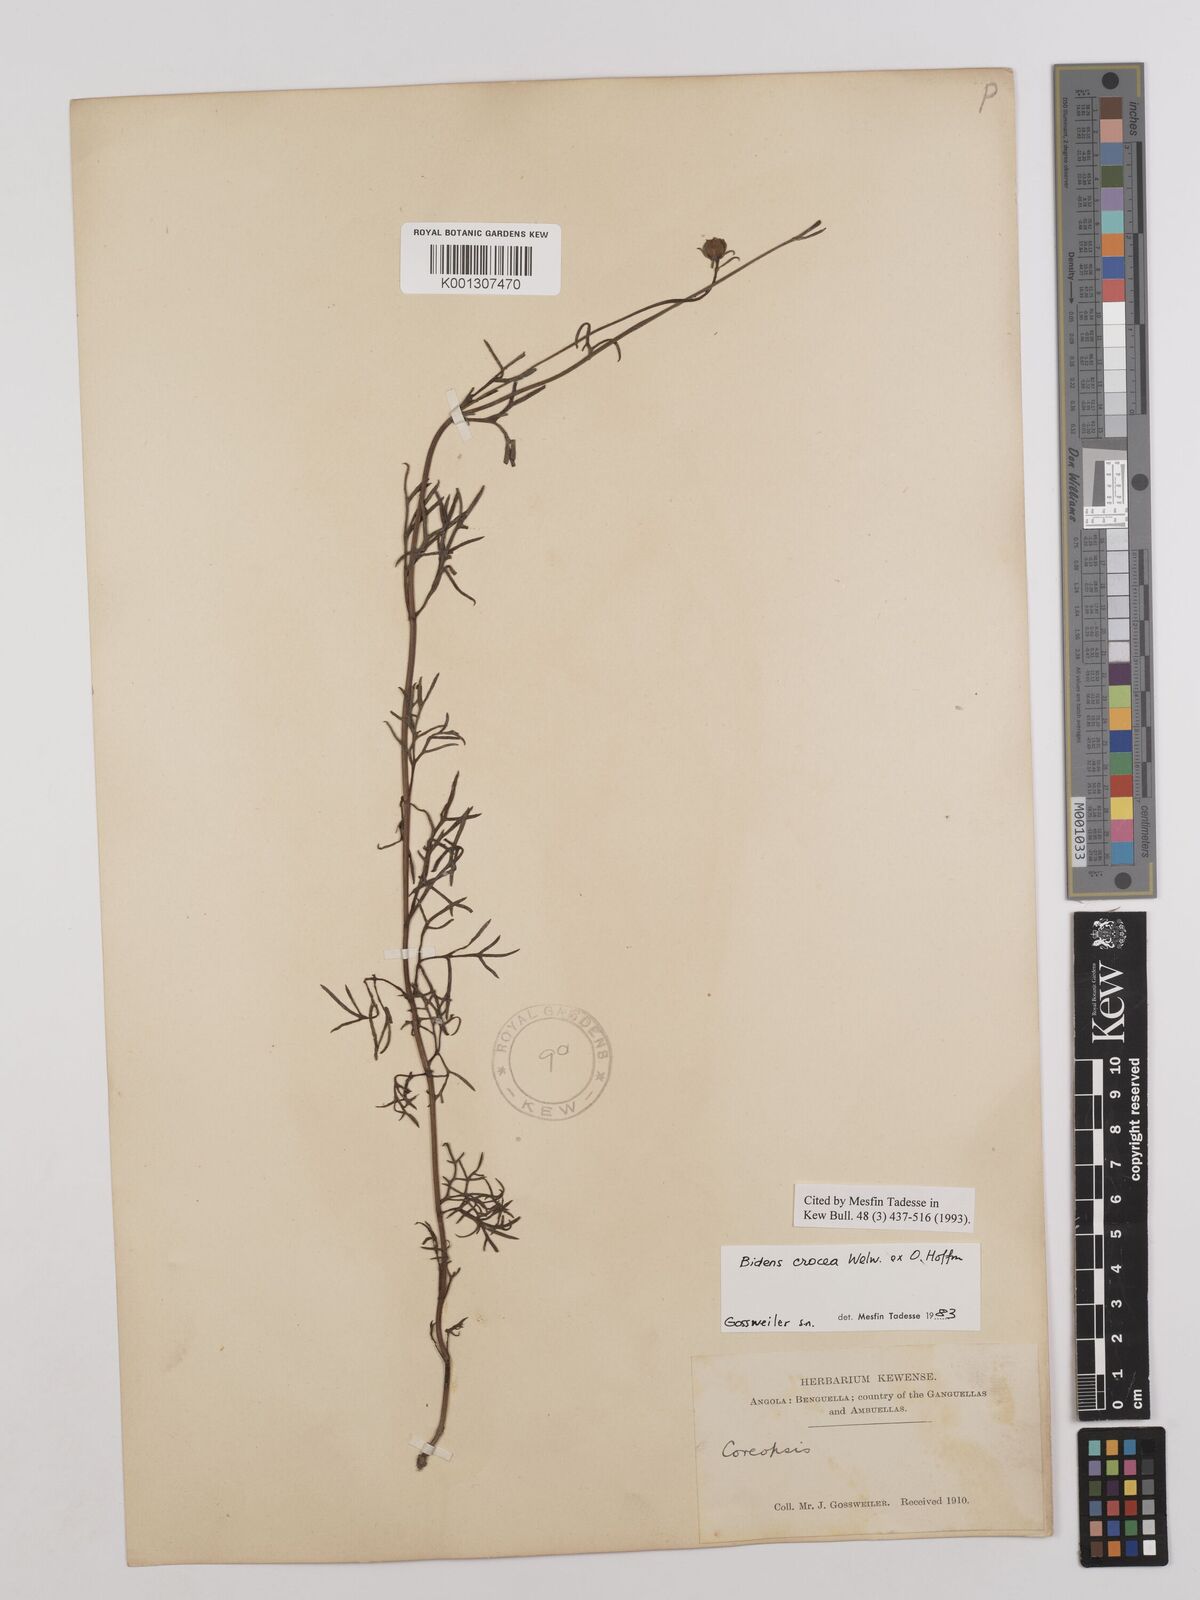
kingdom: Plantae
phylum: Tracheophyta
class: Magnoliopsida
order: Asterales
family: Asteraceae
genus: Bidens
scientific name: Bidens crocea
